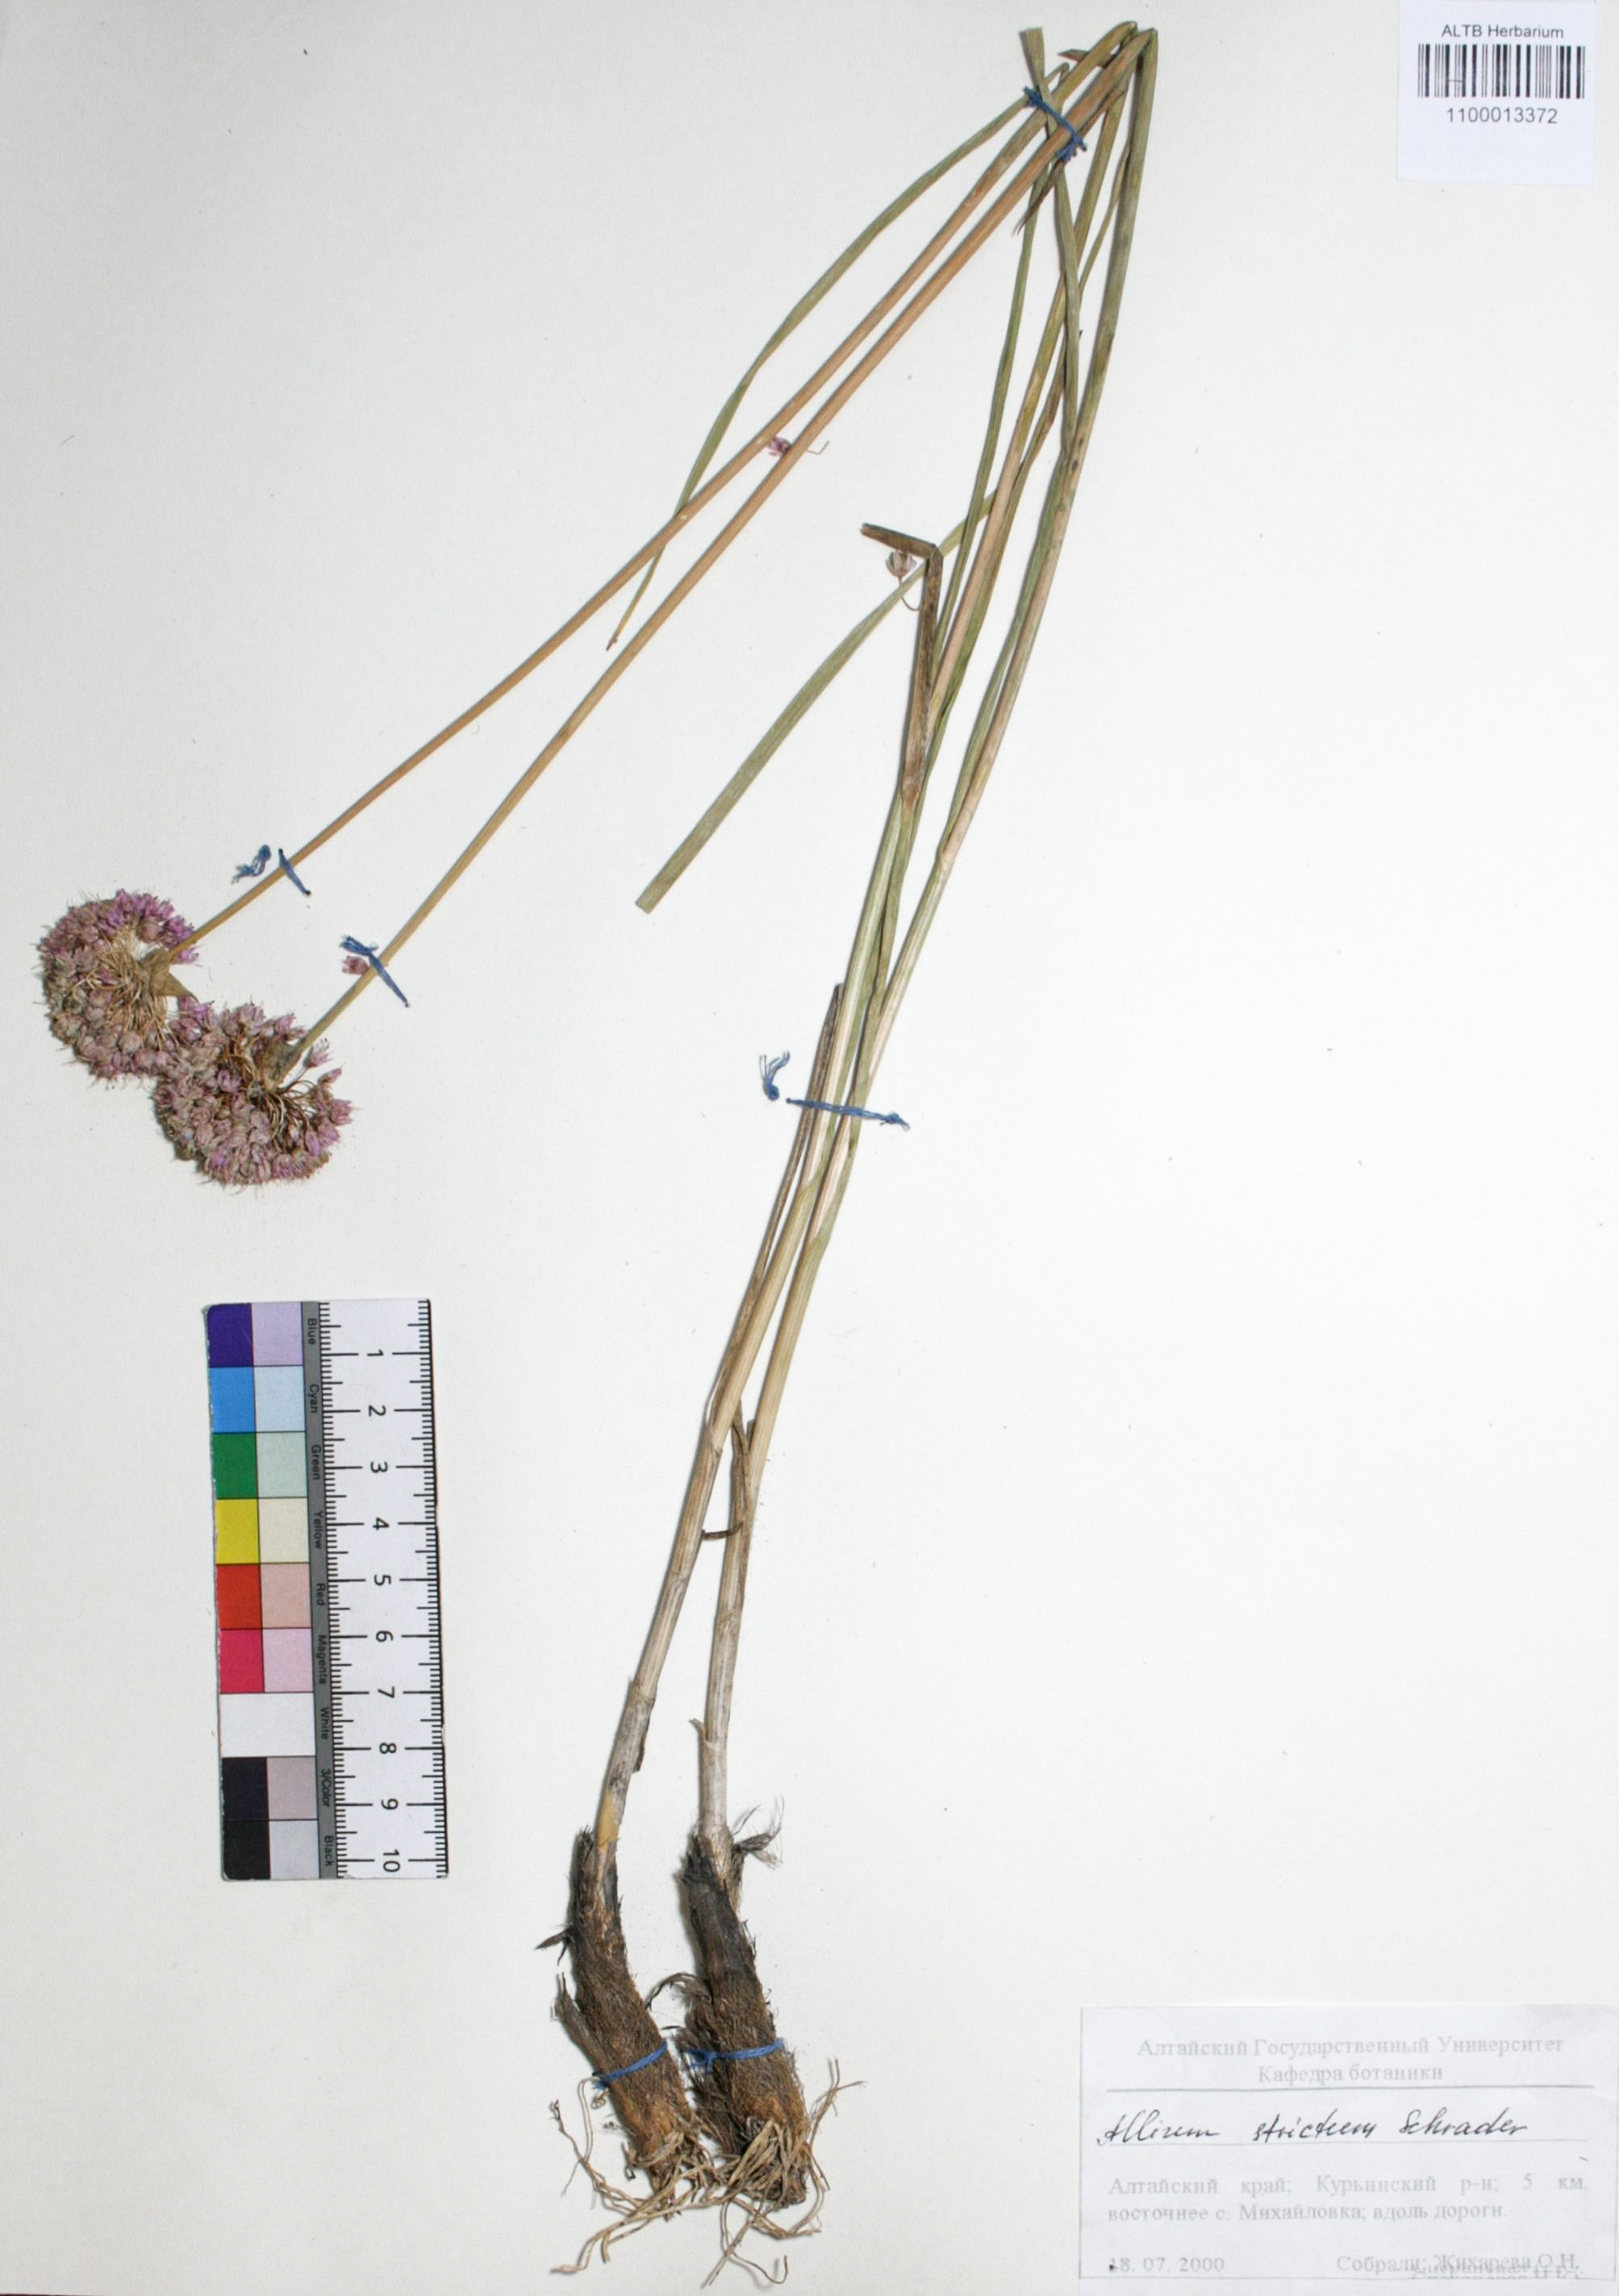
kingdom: Plantae
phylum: Tracheophyta
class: Liliopsida
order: Asparagales
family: Amaryllidaceae
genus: Allium
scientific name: Allium strictum
